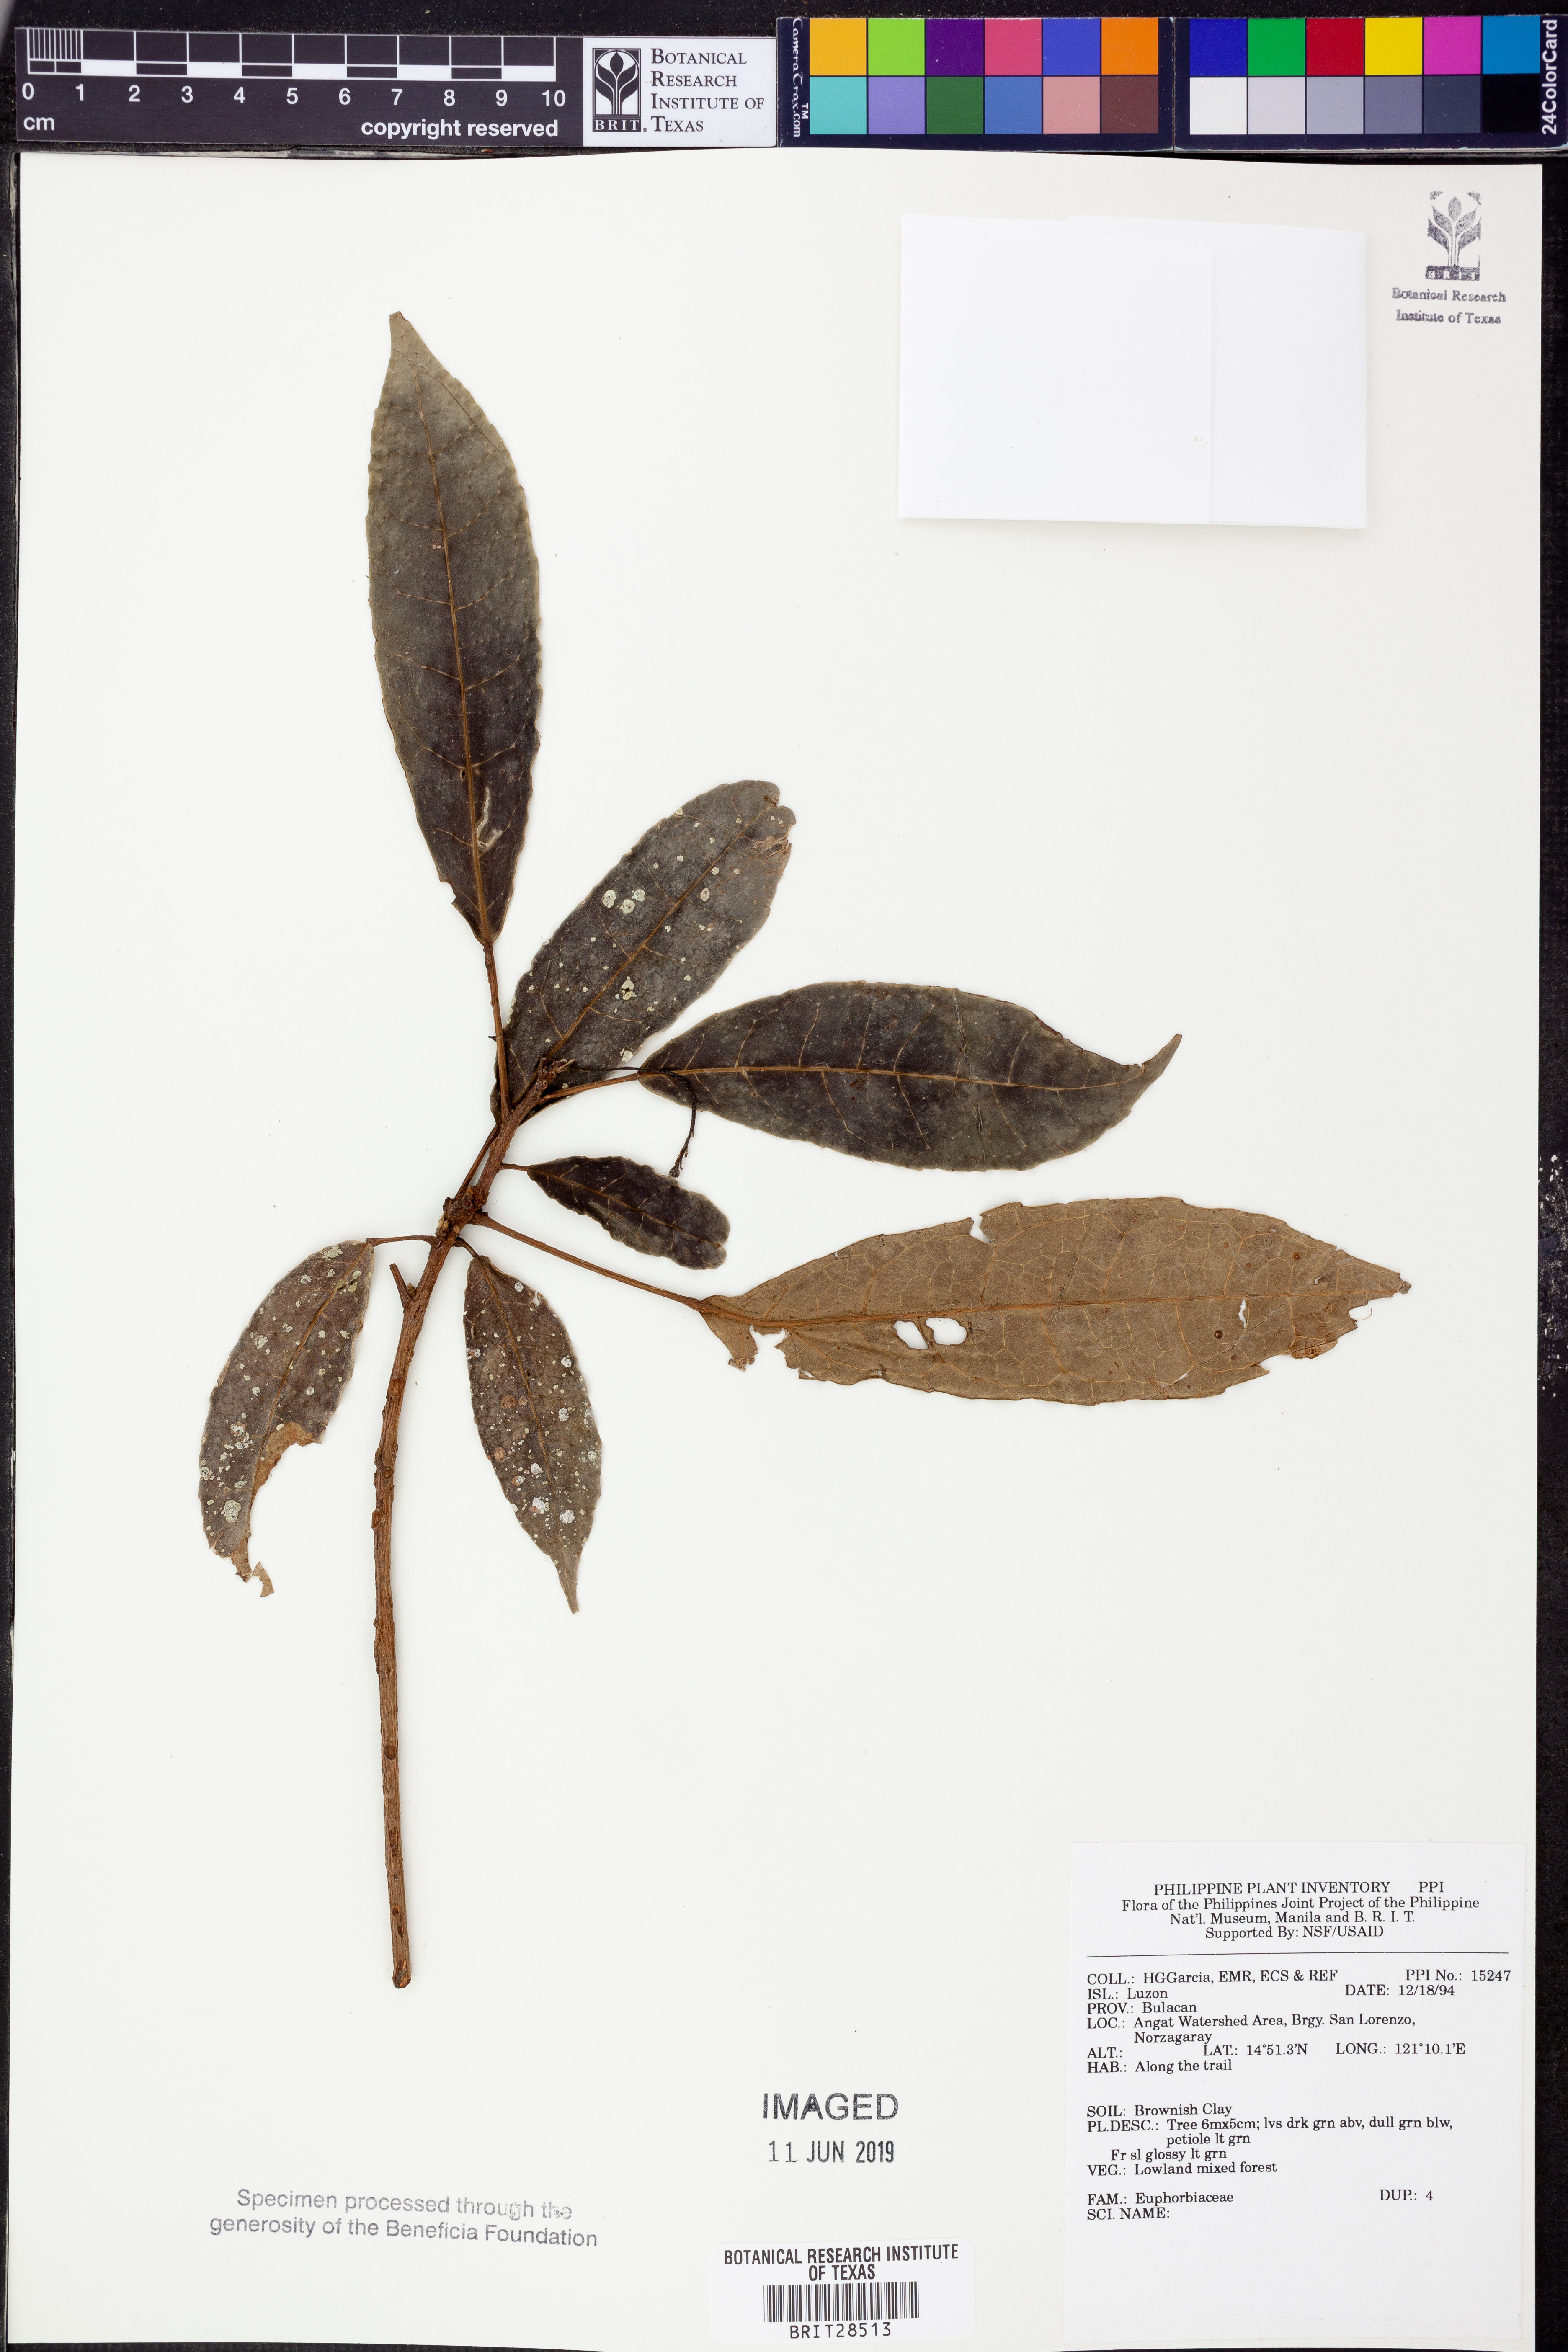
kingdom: Plantae
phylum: Tracheophyta
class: Magnoliopsida
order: Malpighiales
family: Euphorbiaceae
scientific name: Euphorbiaceae
